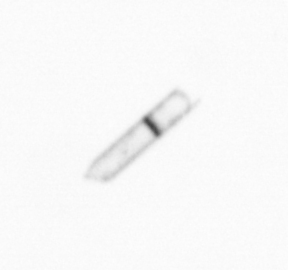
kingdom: Chromista
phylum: Ochrophyta
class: Bacillariophyceae
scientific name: Bacillariophyceae
